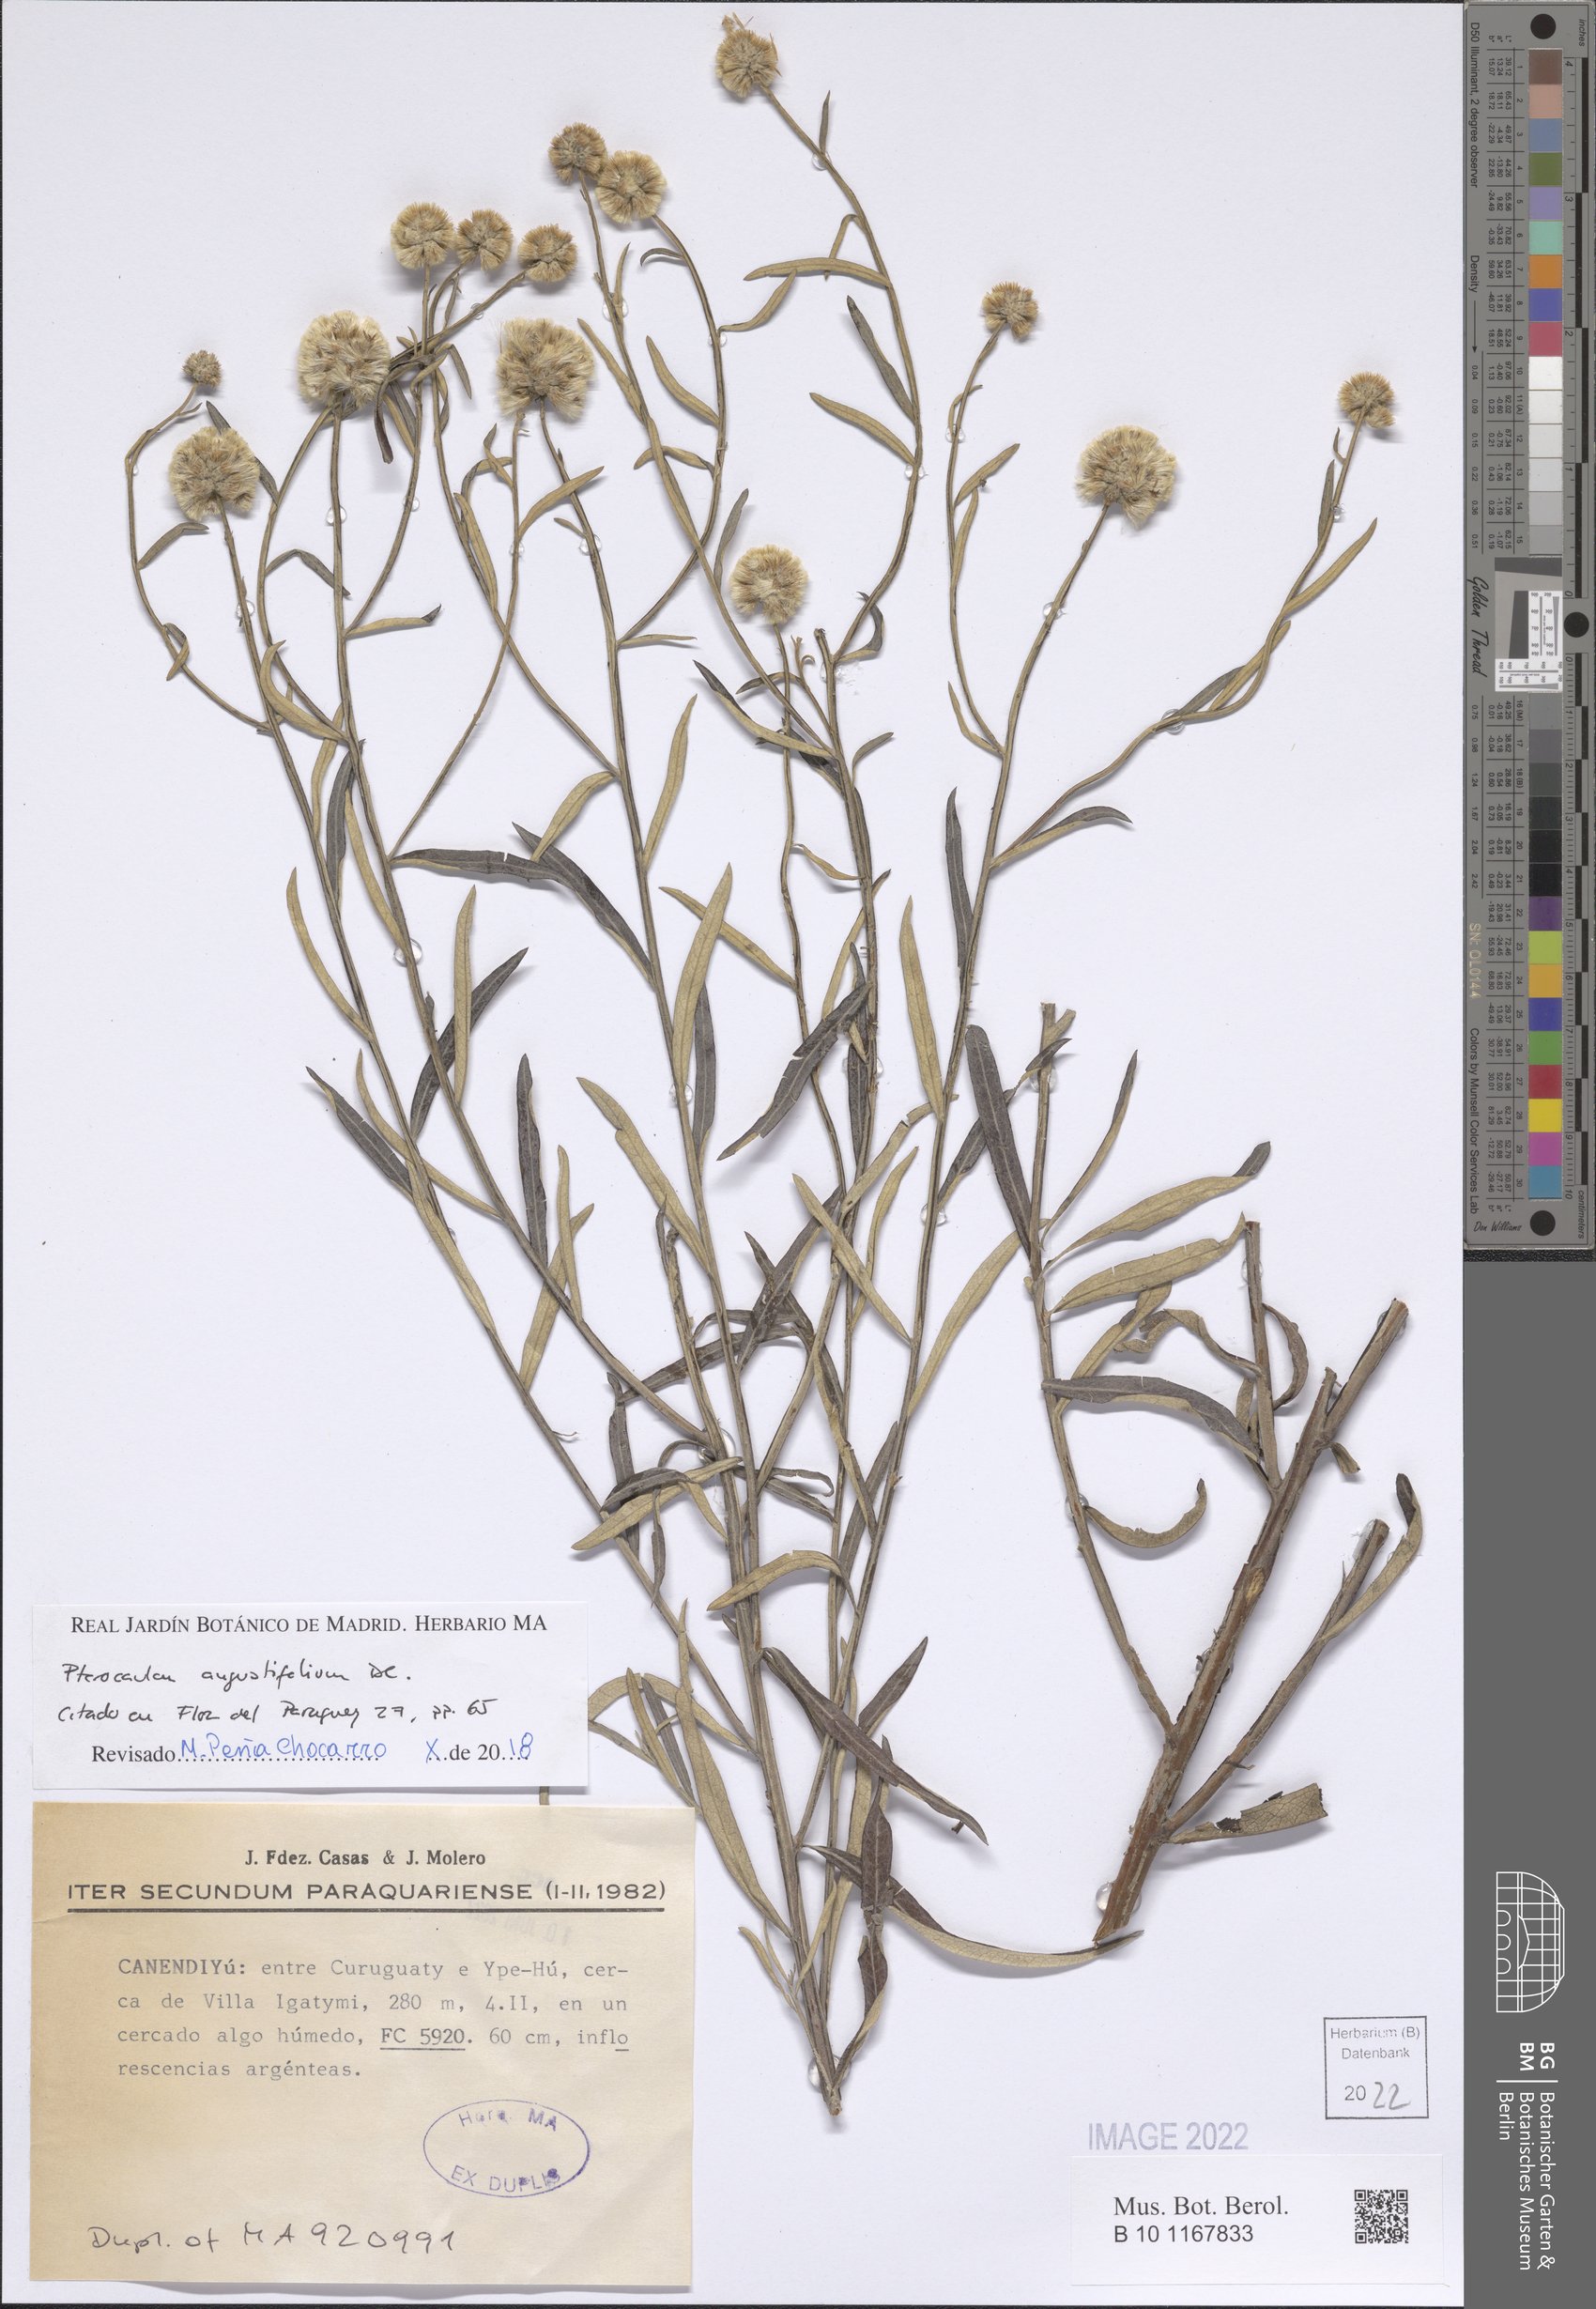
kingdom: Plantae
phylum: Tracheophyta
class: Magnoliopsida
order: Asterales
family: Asteraceae
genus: Pterocaulon
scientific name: Pterocaulon angustifolium
